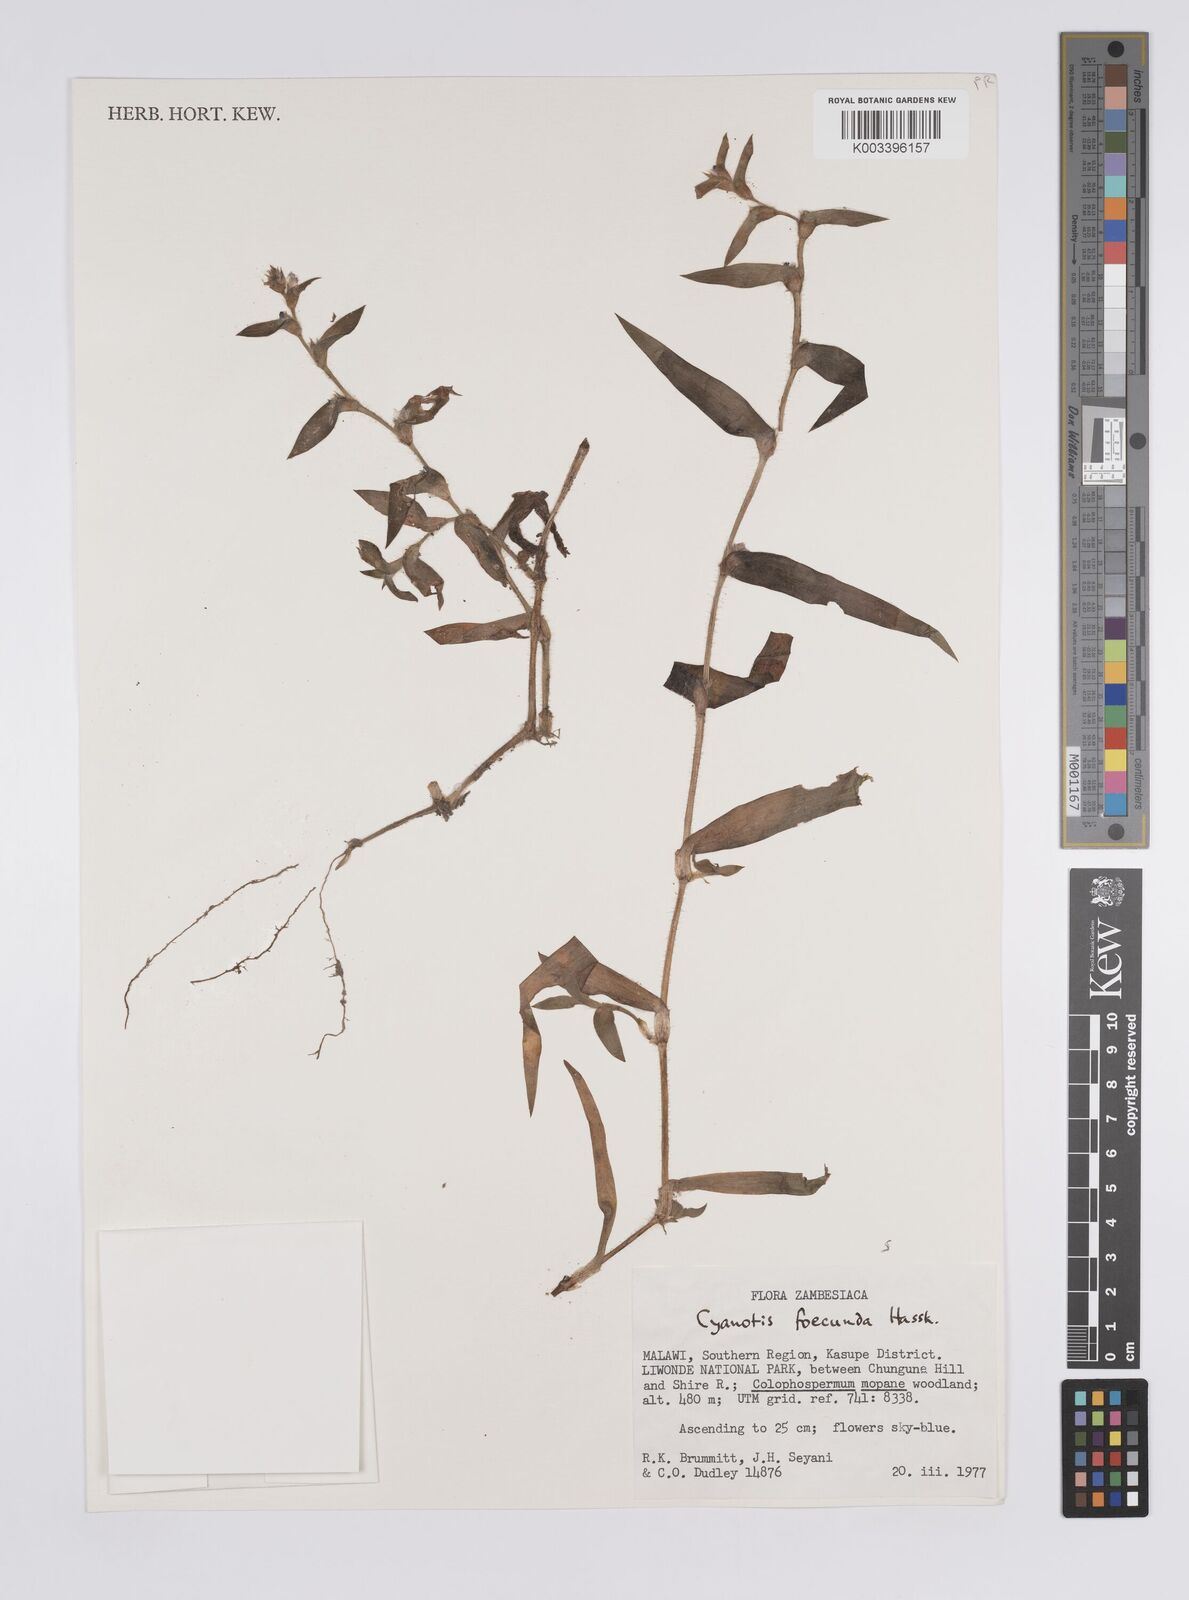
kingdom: Plantae
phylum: Tracheophyta
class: Liliopsida
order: Commelinales
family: Commelinaceae
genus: Cyanotis
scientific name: Cyanotis foecunda
